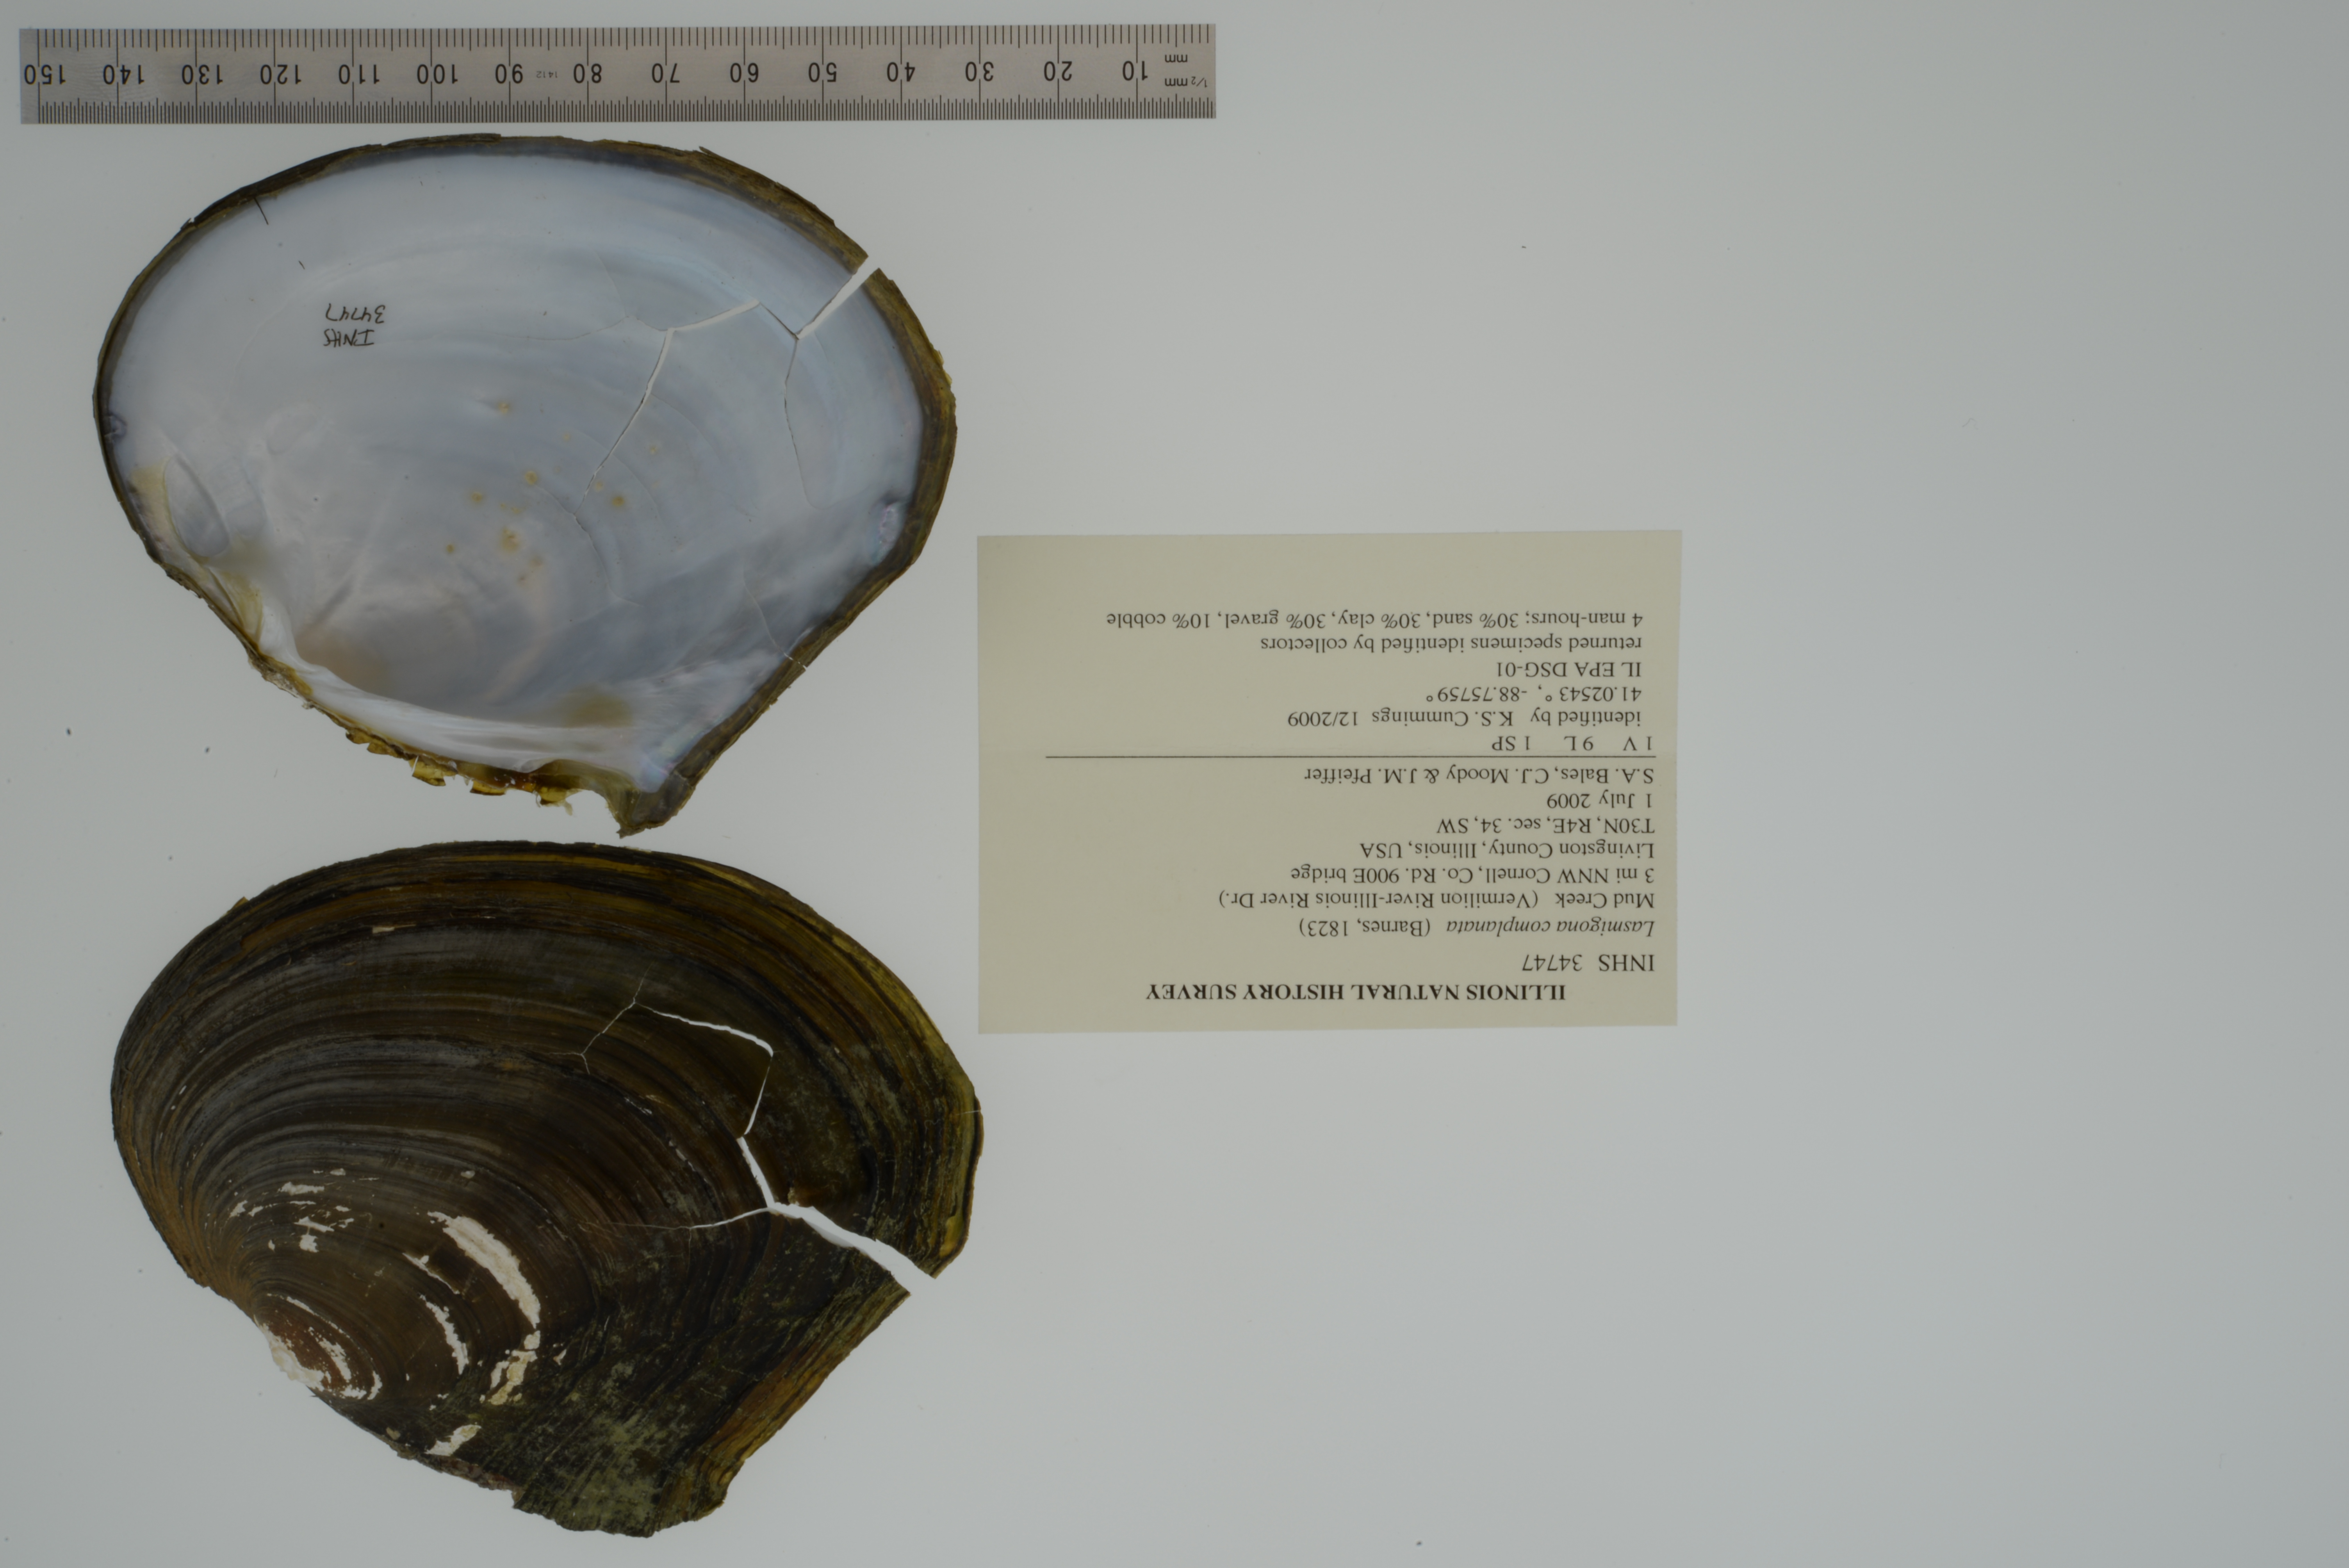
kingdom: Animalia
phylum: Mollusca
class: Bivalvia
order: Unionida
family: Unionidae
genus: Lasmigona
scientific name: Lasmigona complanata
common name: White heelsplitter
